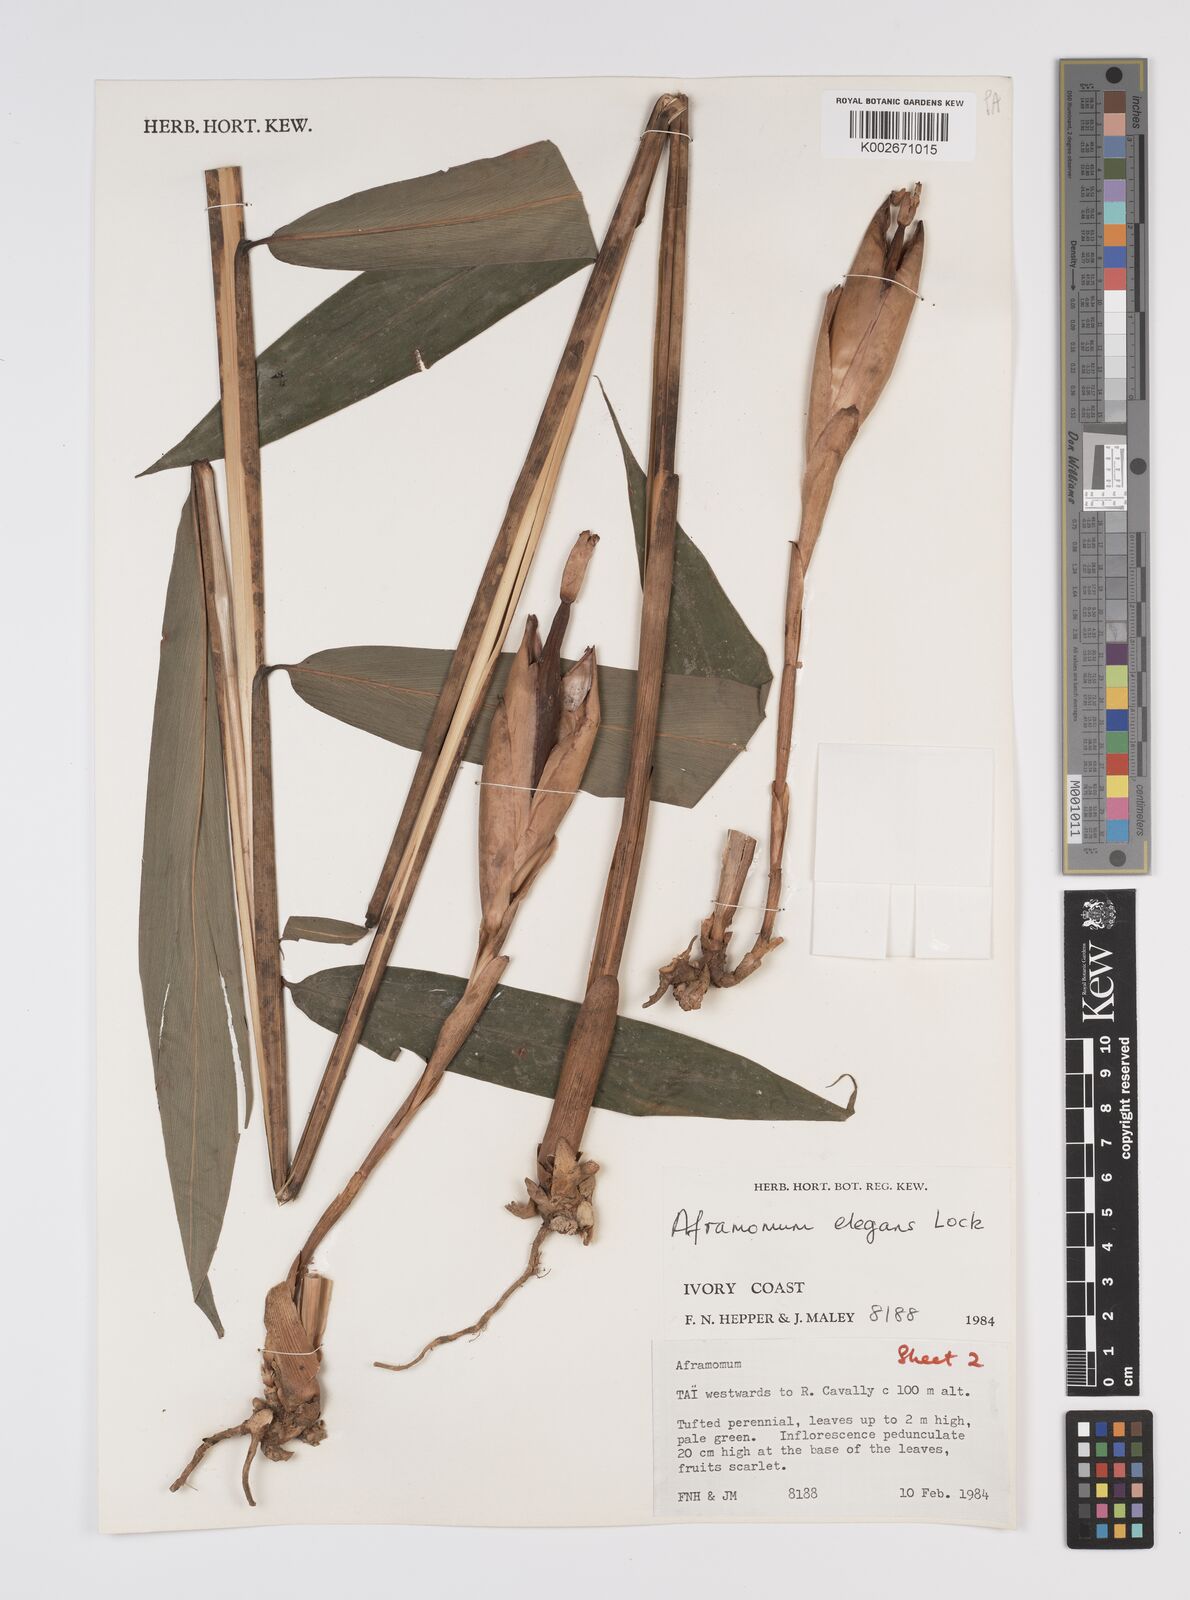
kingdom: Plantae
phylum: Tracheophyta
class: Liliopsida
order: Zingiberales
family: Zingiberaceae
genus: Aframomum
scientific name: Aframomum elegans
